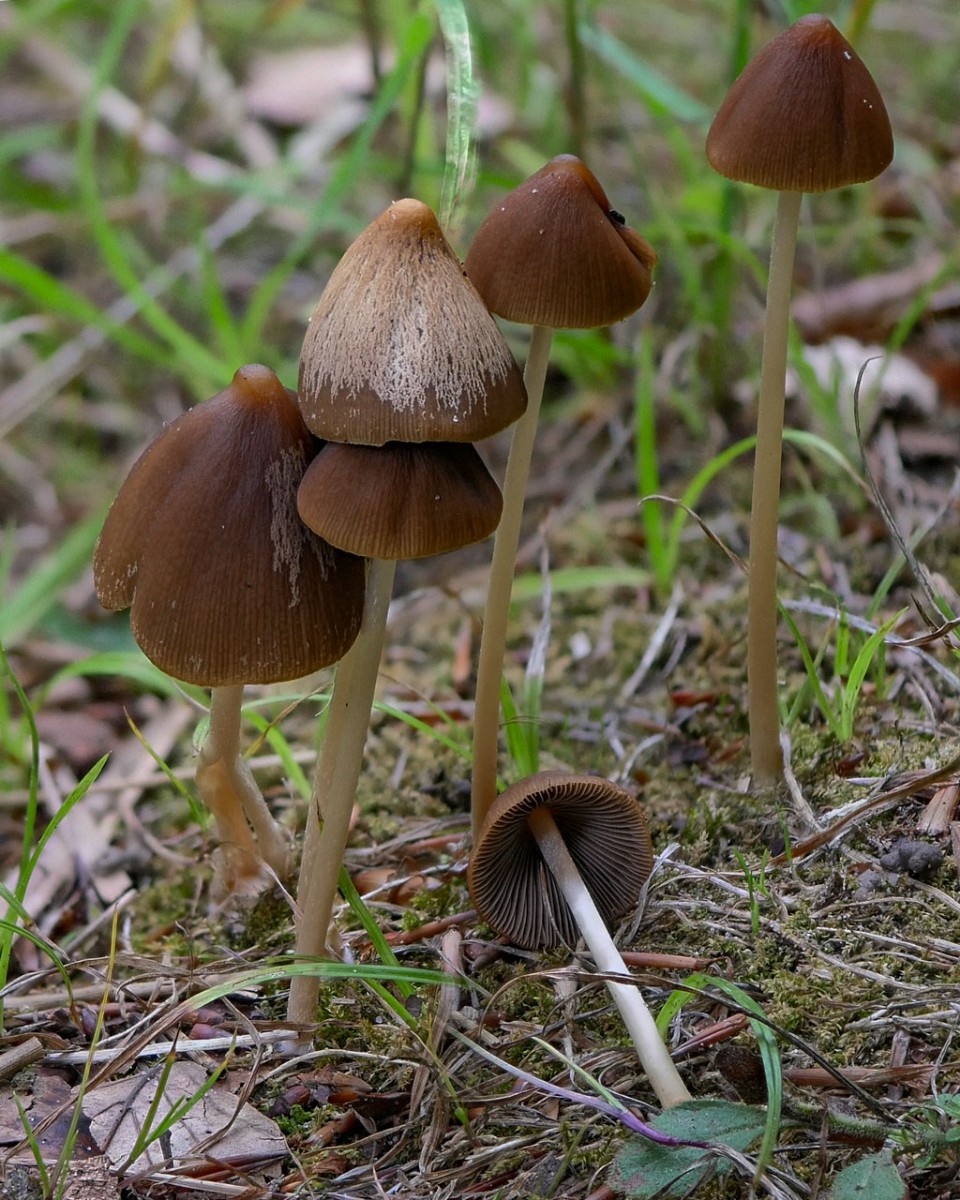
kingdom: Fungi
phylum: Basidiomycota
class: Agaricomycetes
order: Agaricales
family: Psathyrellaceae
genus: Parasola
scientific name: Parasola conopilea
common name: kegle-hjulhat
